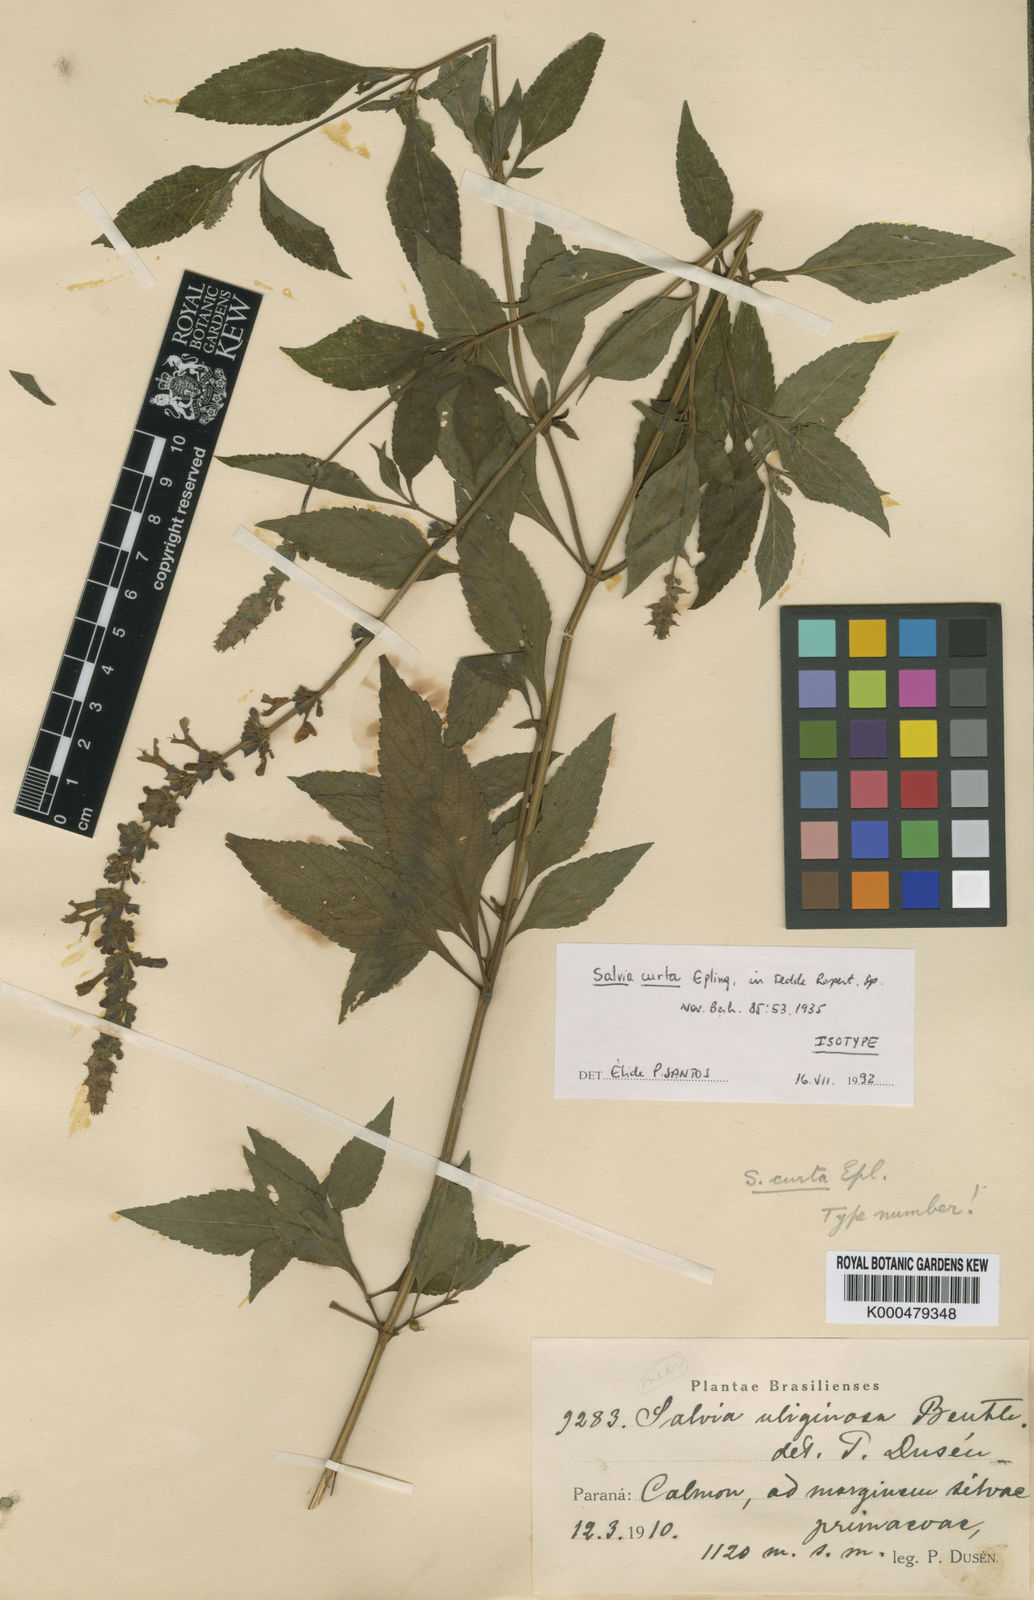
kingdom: Plantae
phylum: Tracheophyta
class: Magnoliopsida
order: Lamiales
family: Lamiaceae
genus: Salvia
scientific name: Salvia curta
